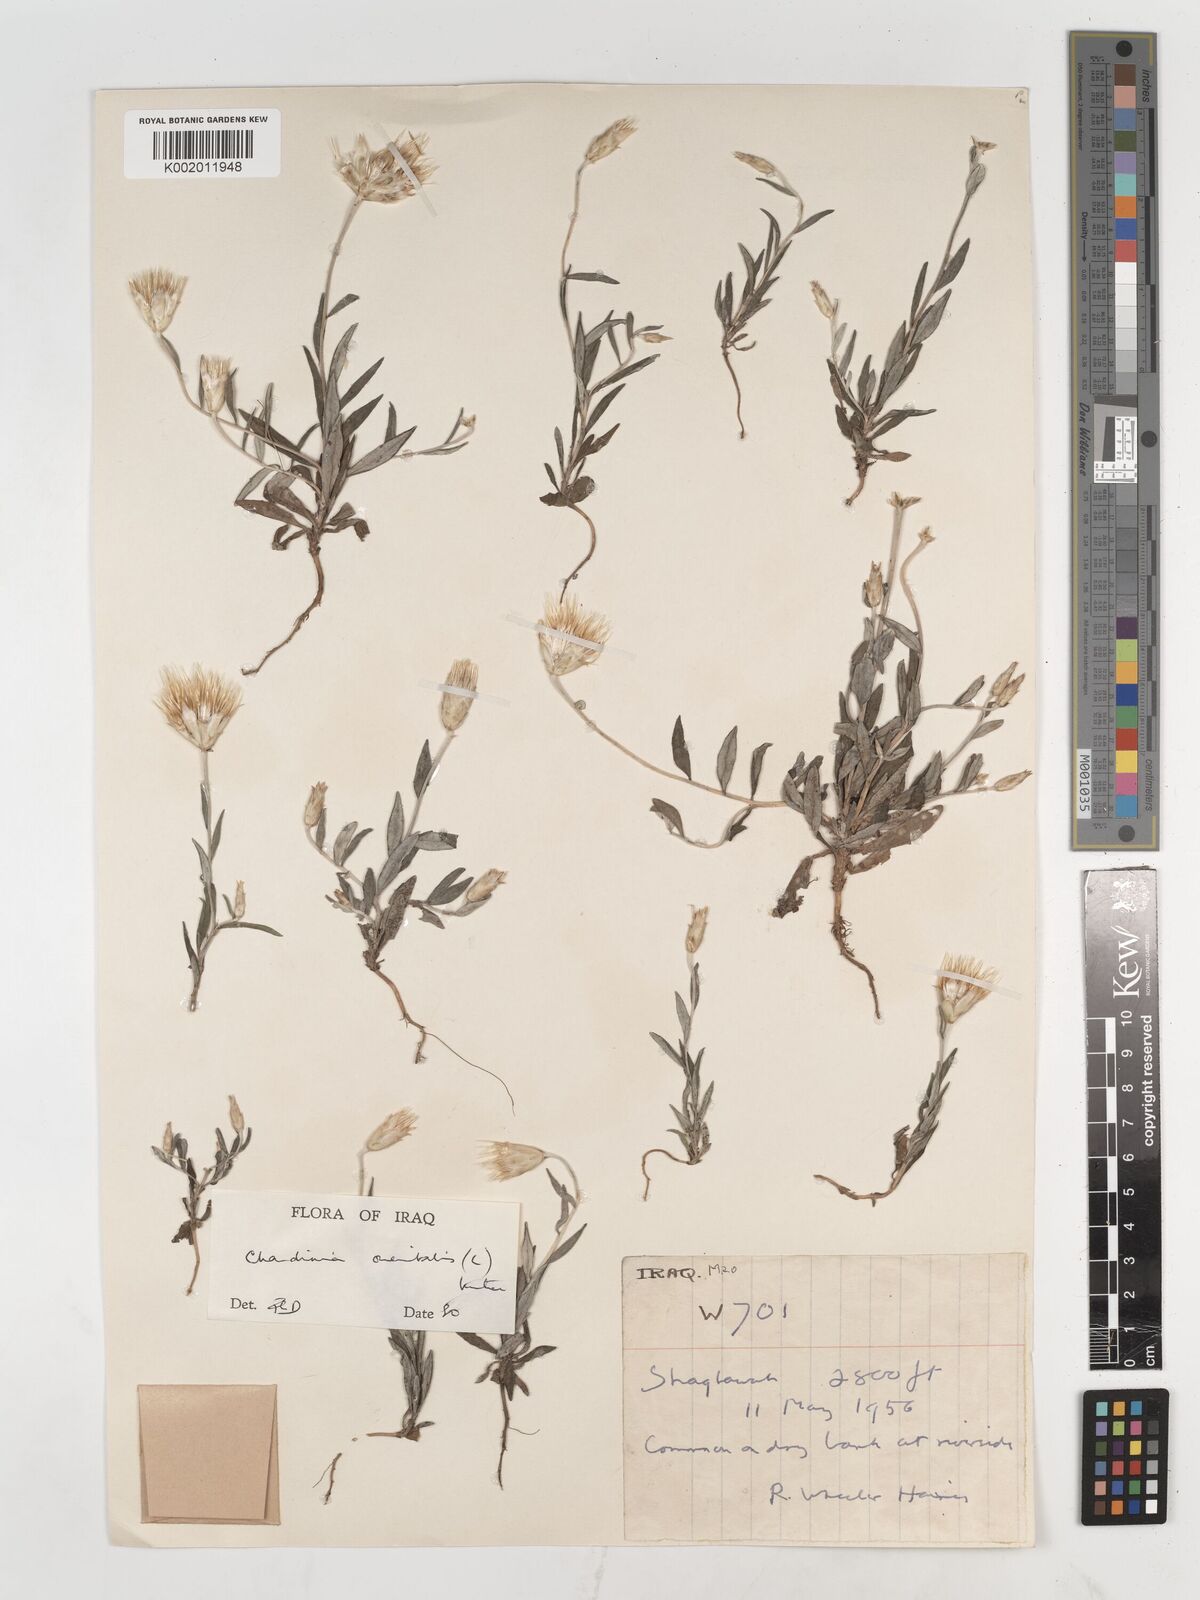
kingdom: Plantae
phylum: Tracheophyta
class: Magnoliopsida
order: Asterales
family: Asteraceae
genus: Chardinia
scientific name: Chardinia orientalis
